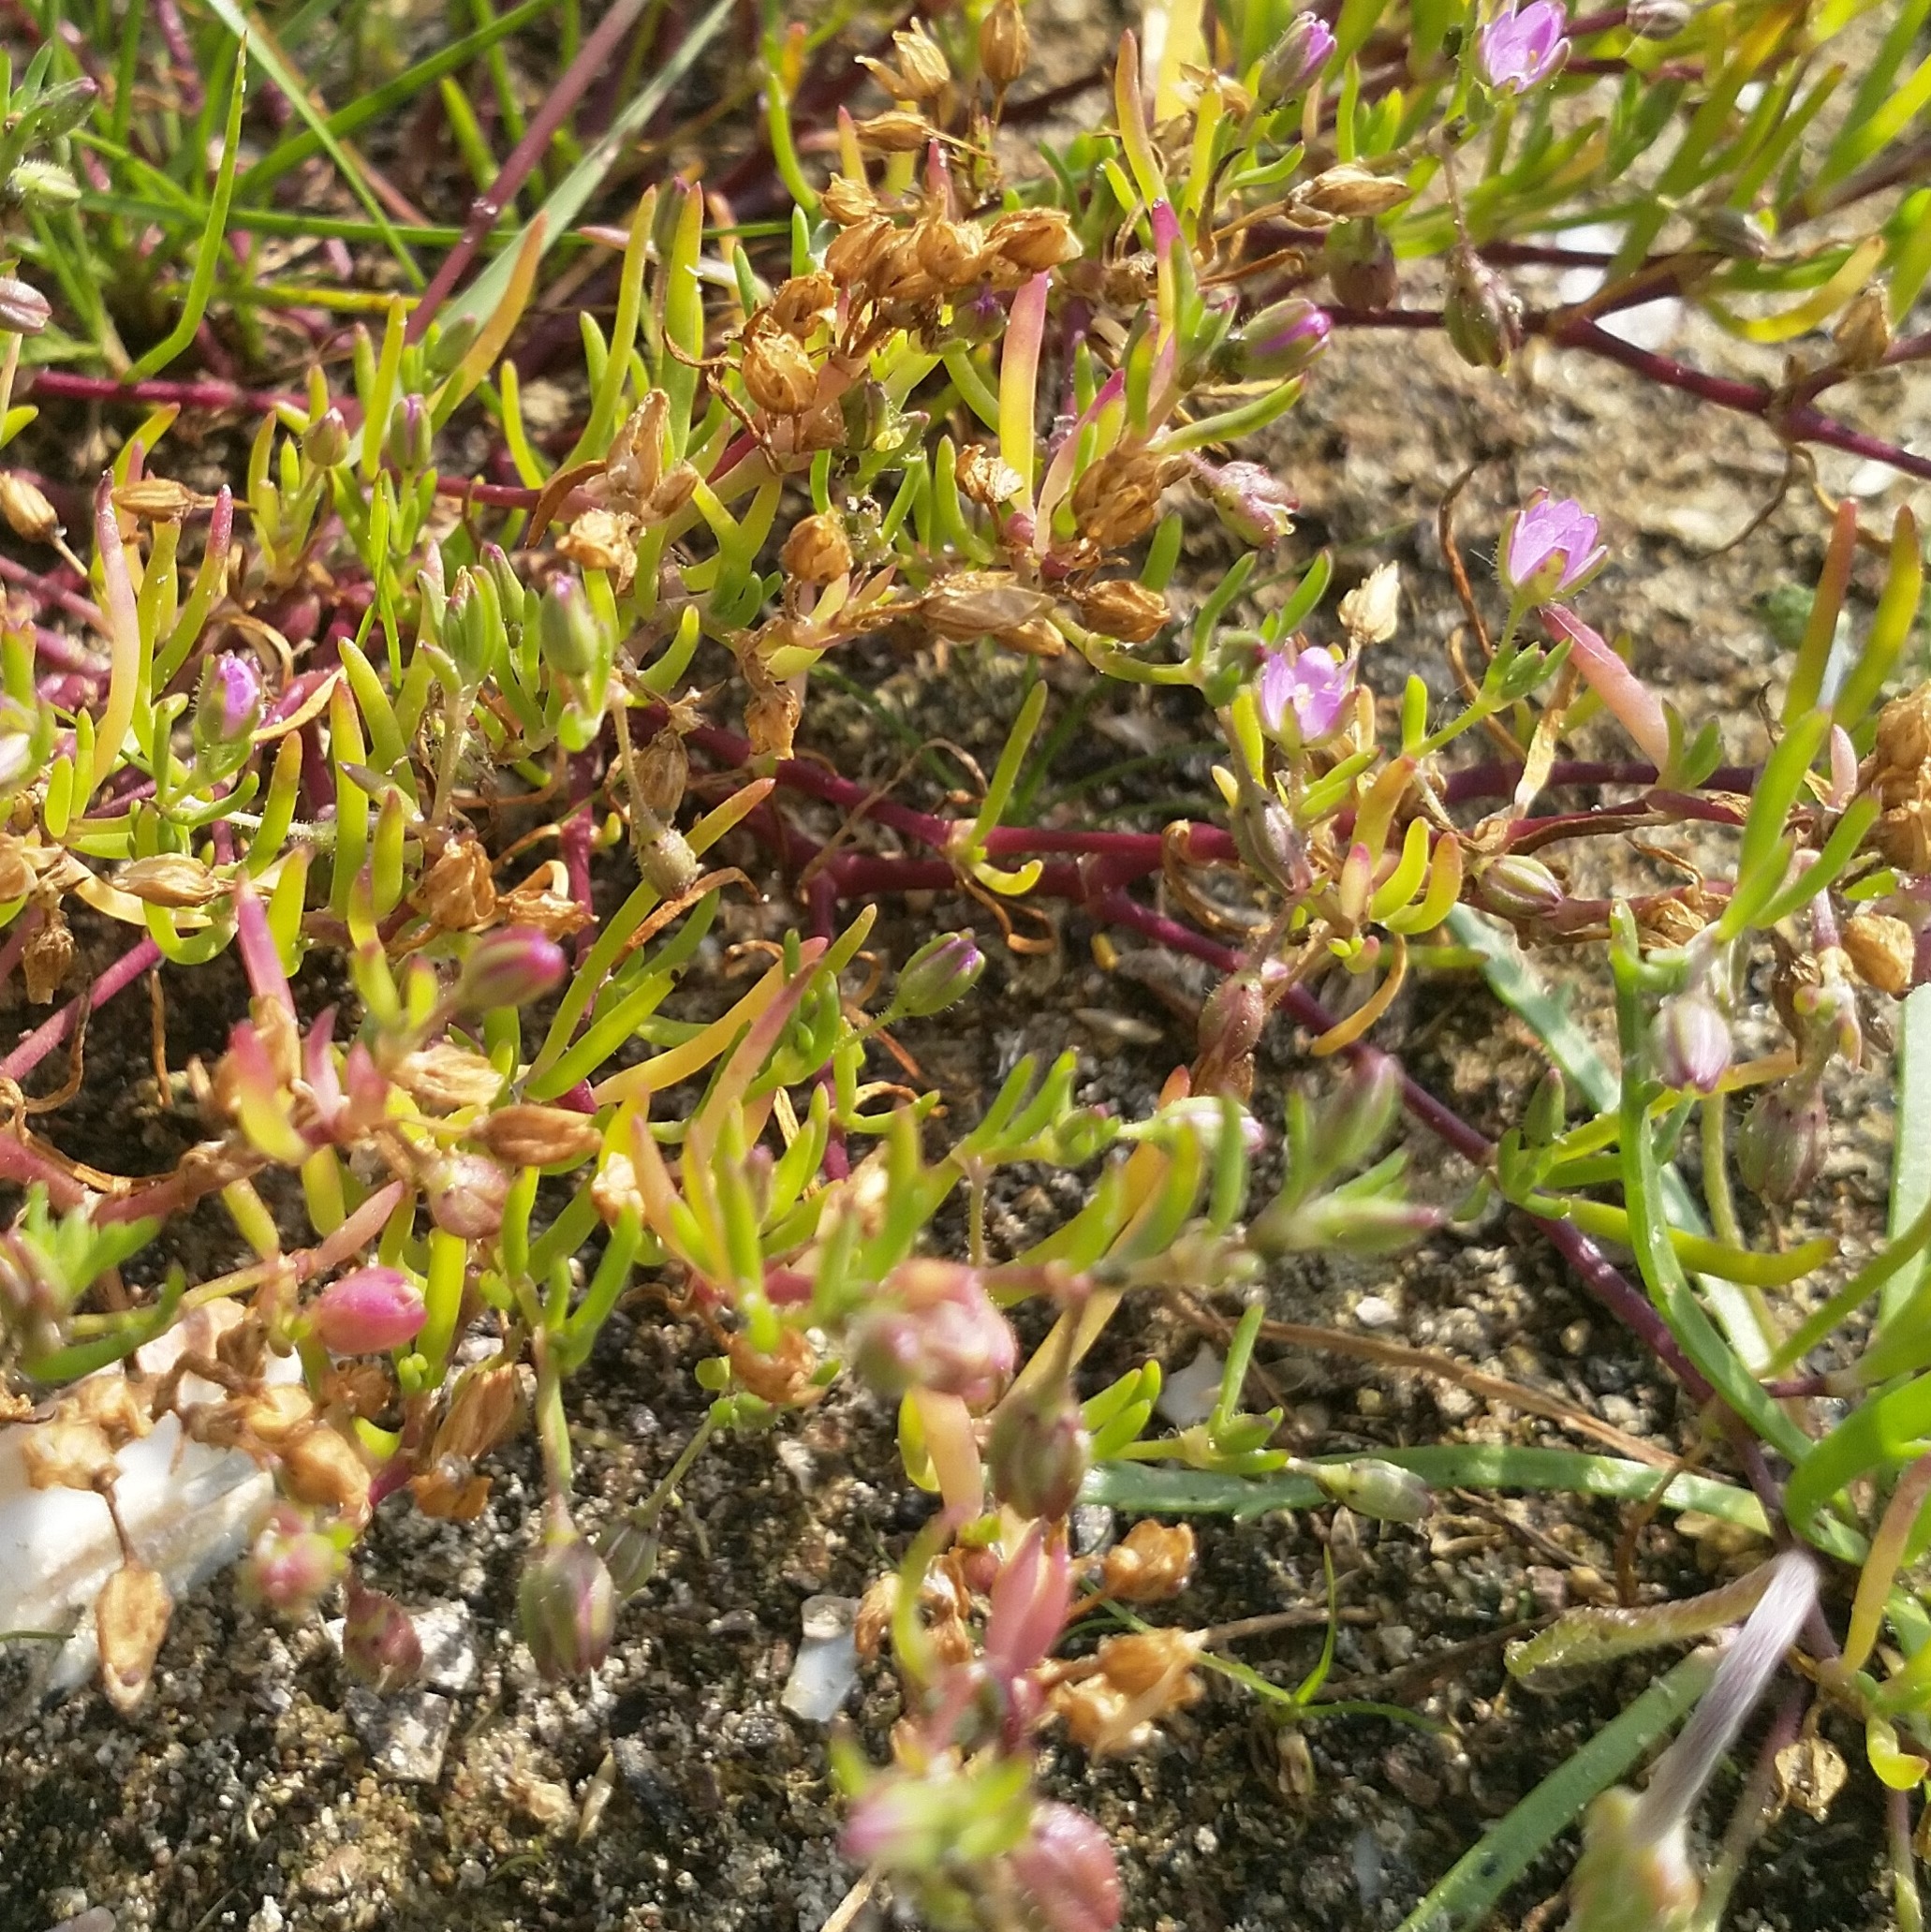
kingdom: Plantae
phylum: Tracheophyta
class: Magnoliopsida
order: Caryophyllales
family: Caryophyllaceae
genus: Spergularia
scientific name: Spergularia marina
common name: Kødet hindeknæ
